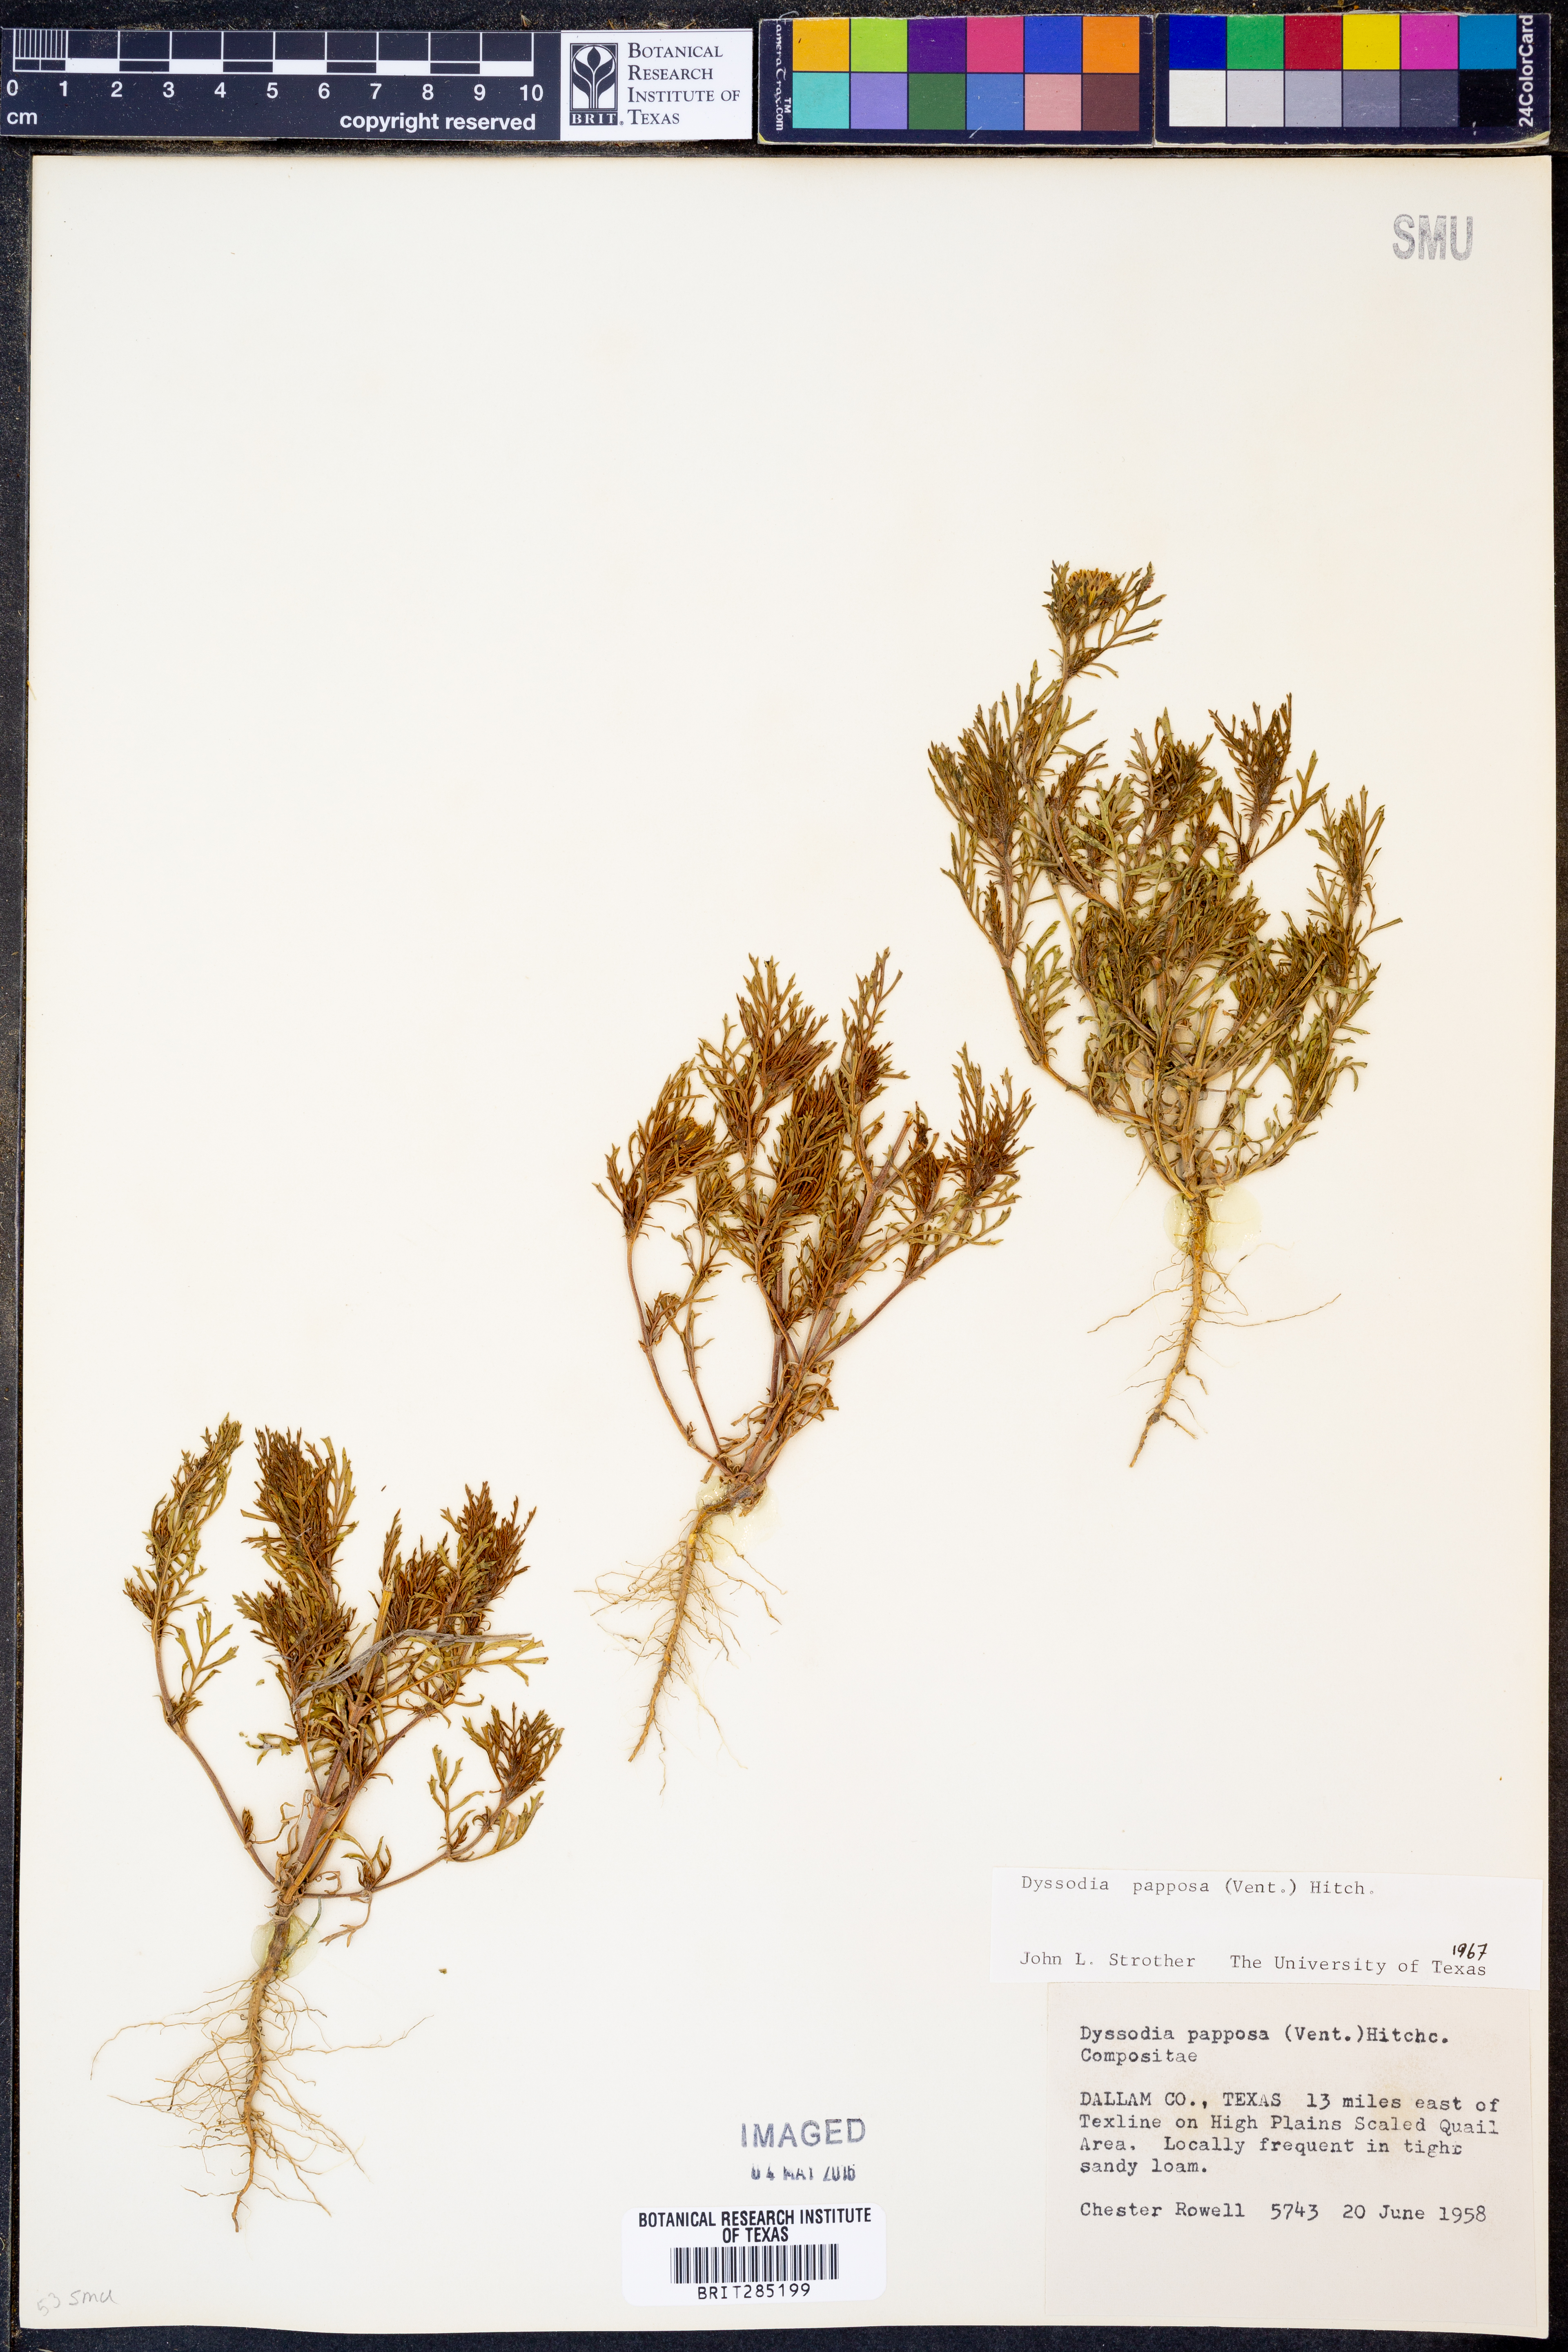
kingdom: Plantae
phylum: Tracheophyta
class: Magnoliopsida
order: Asterales
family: Asteraceae
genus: Dyssodia
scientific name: Dyssodia papposa
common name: Dogweed
